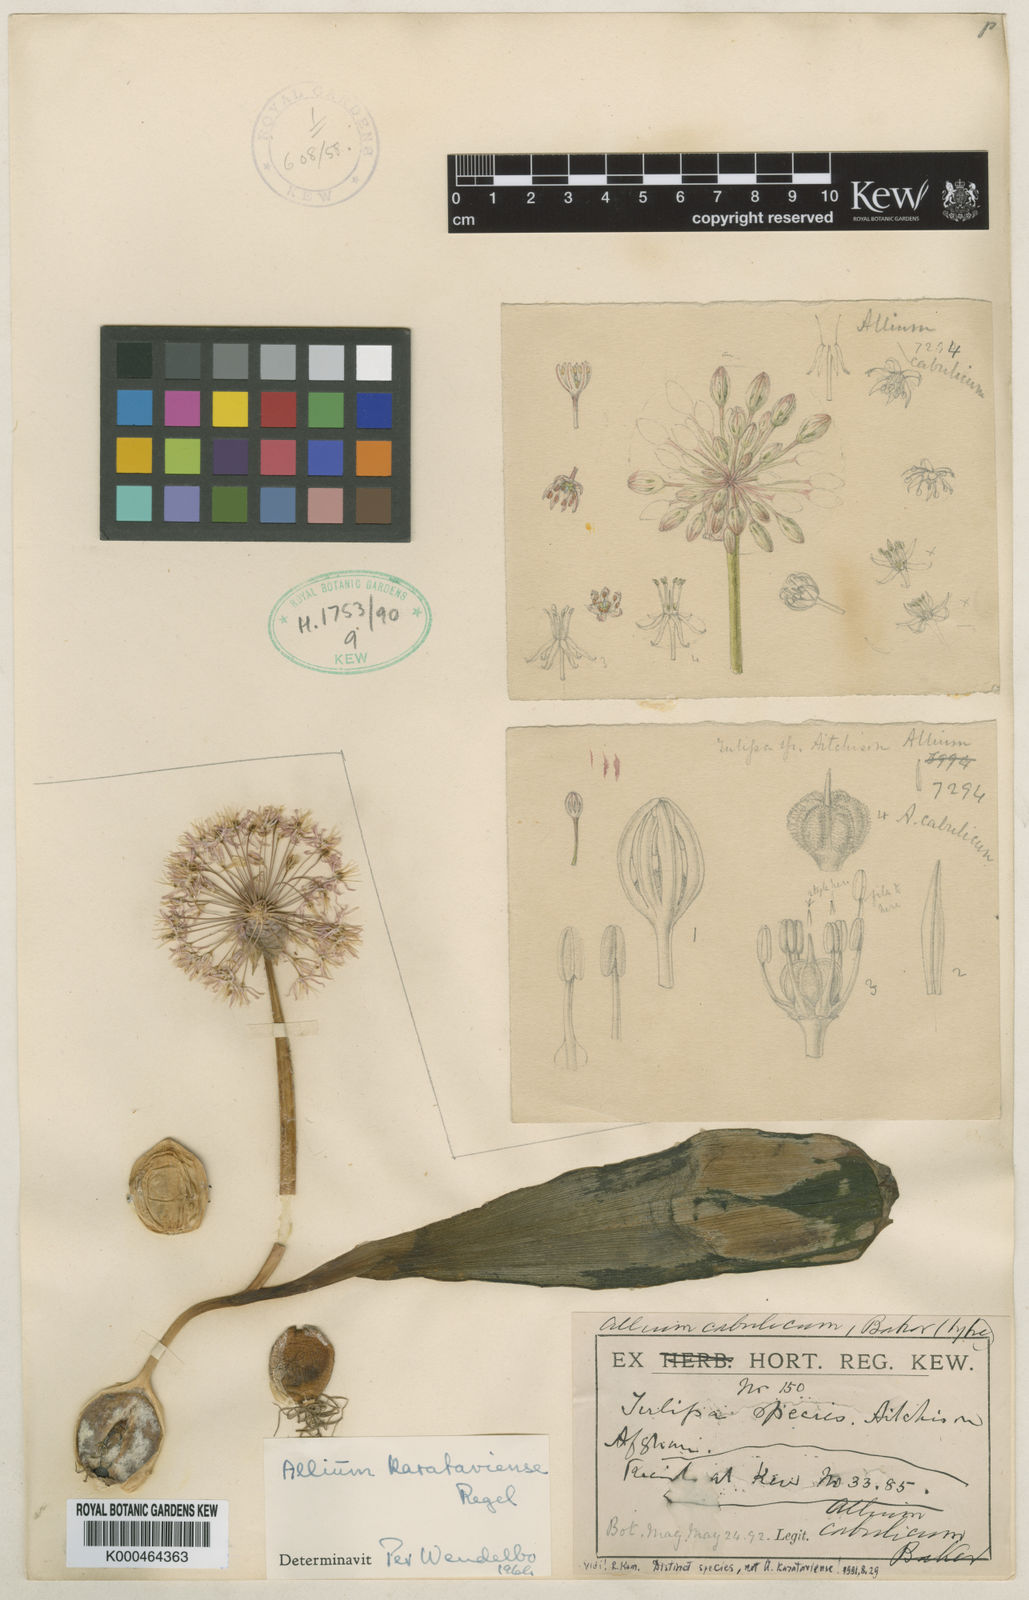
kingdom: Plantae
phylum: Tracheophyta
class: Liliopsida
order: Asparagales
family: Amaryllidaceae
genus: Allium
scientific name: Allium karataviense
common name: Turkestan onion
